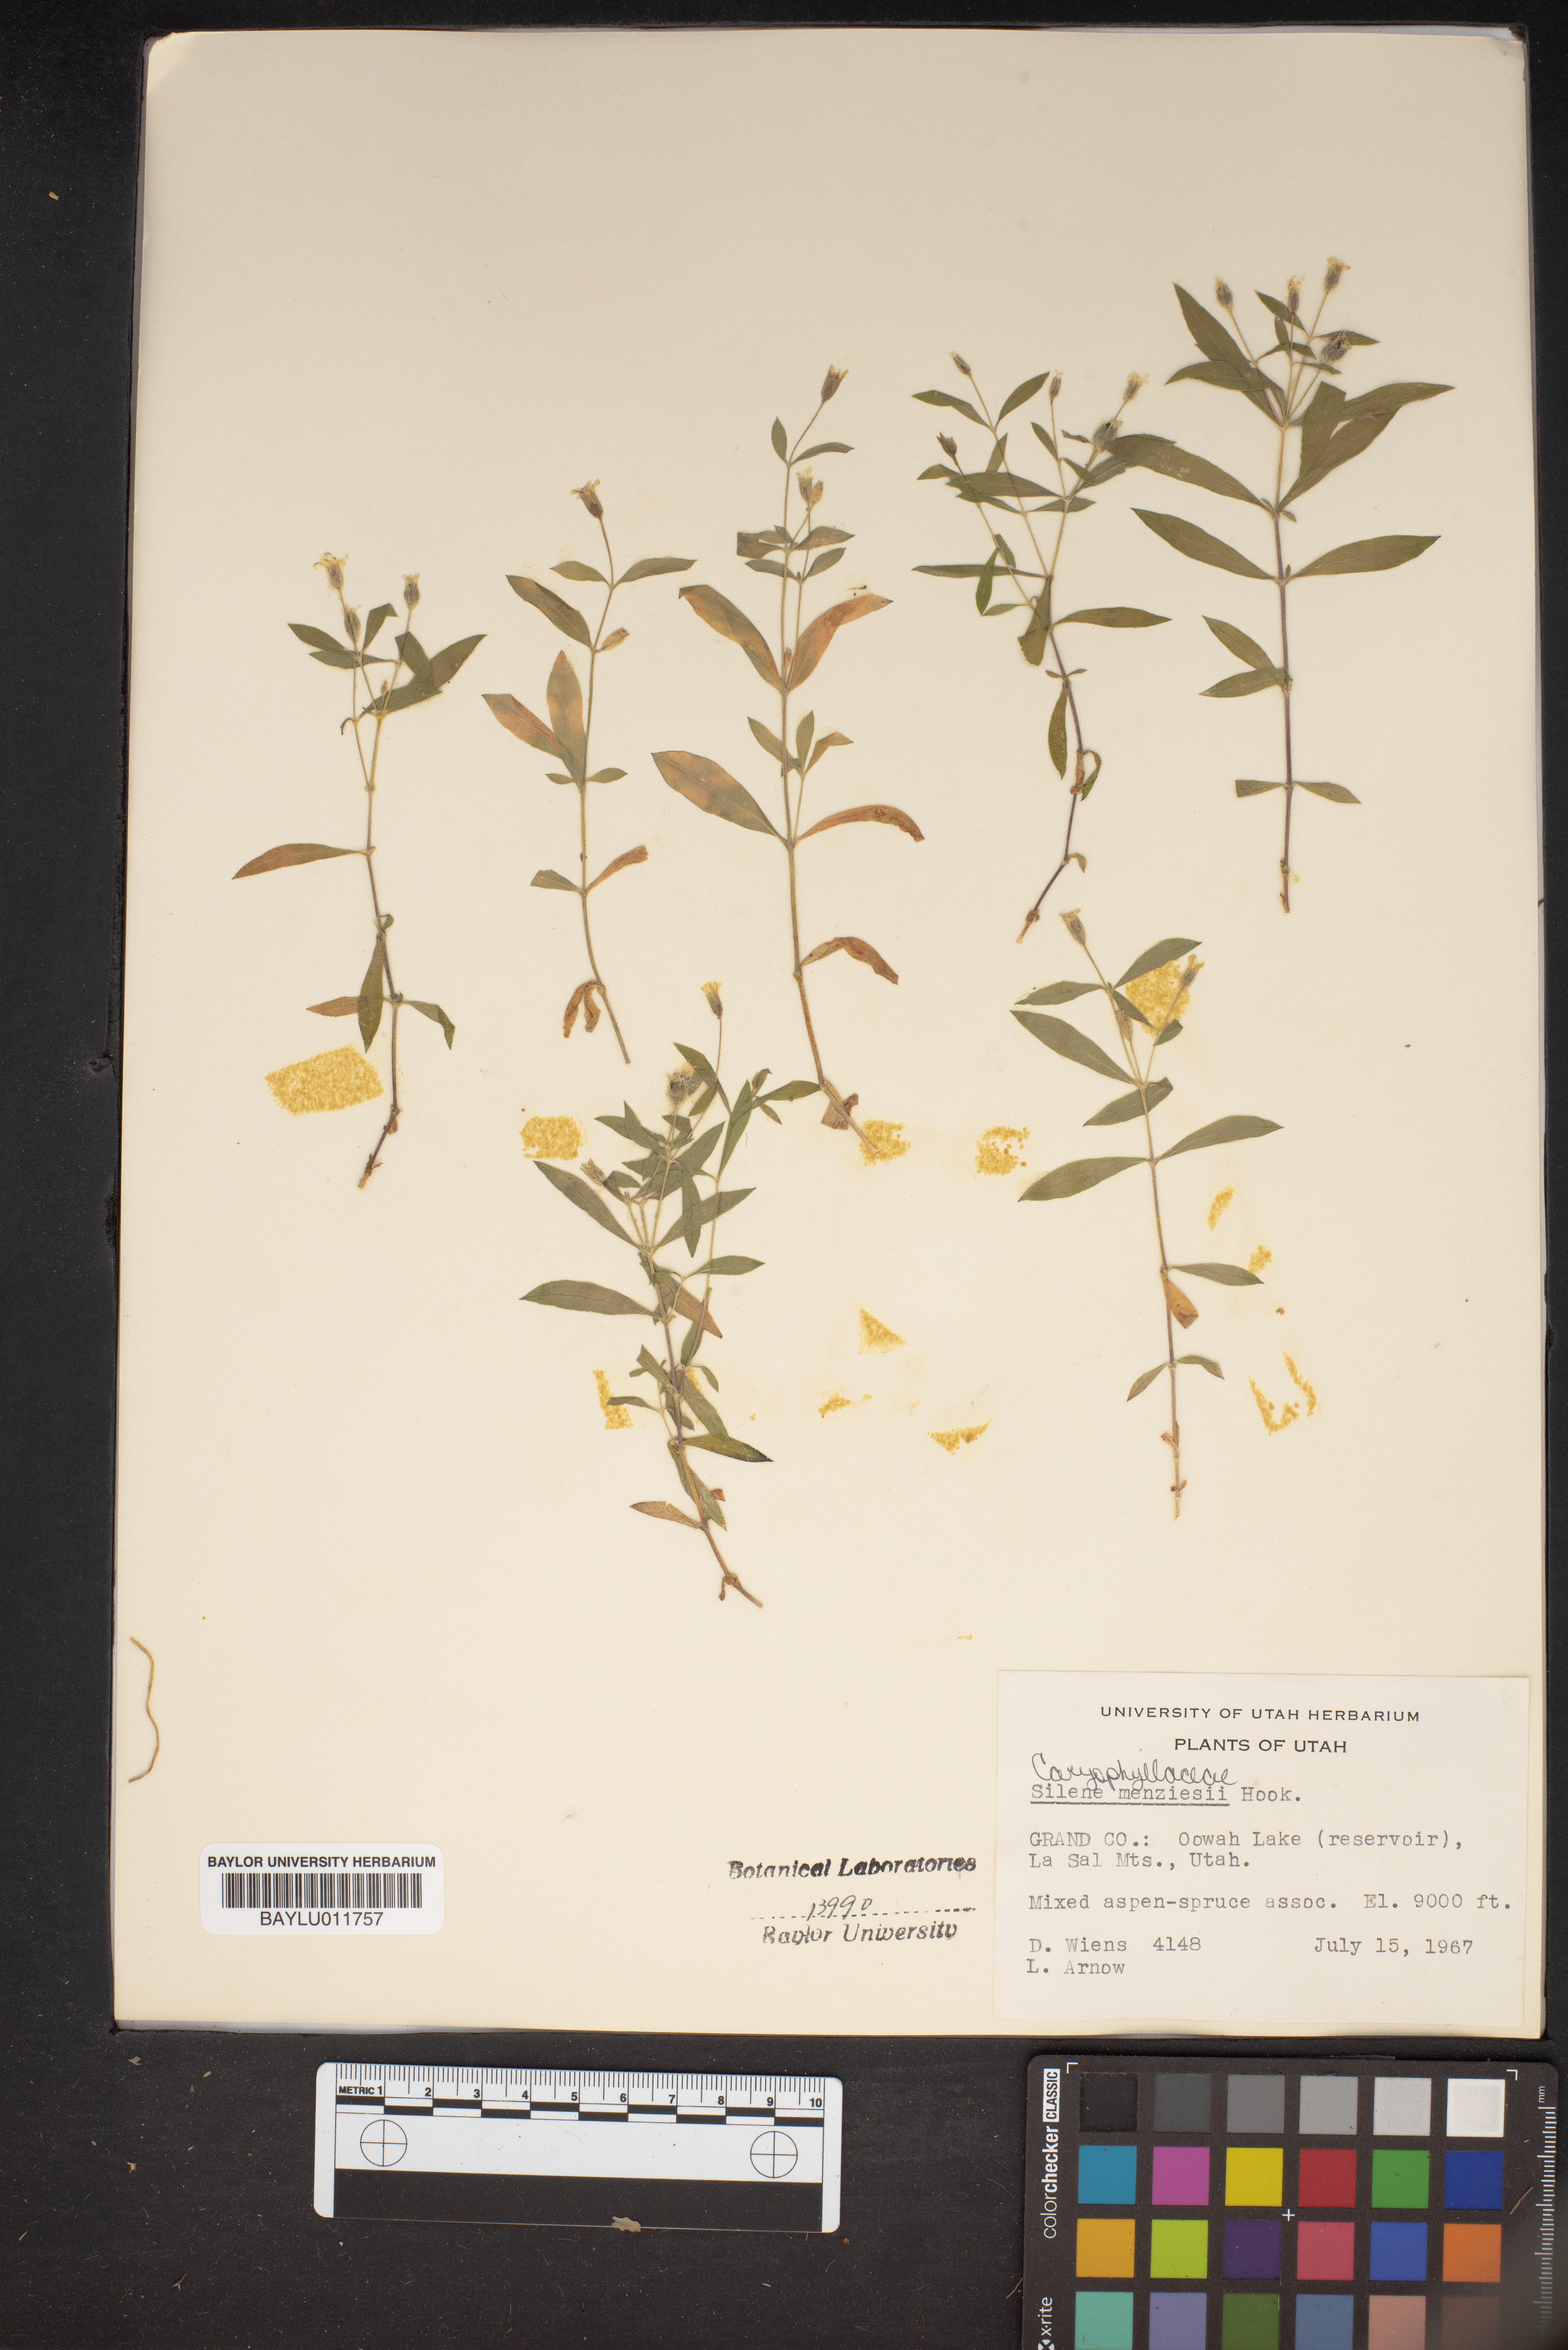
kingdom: Plantae
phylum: Tracheophyta
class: Magnoliopsida
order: Caryophyllales
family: Caryophyllaceae
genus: Silene
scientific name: Silene menziesii
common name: Menzies's catchfly
